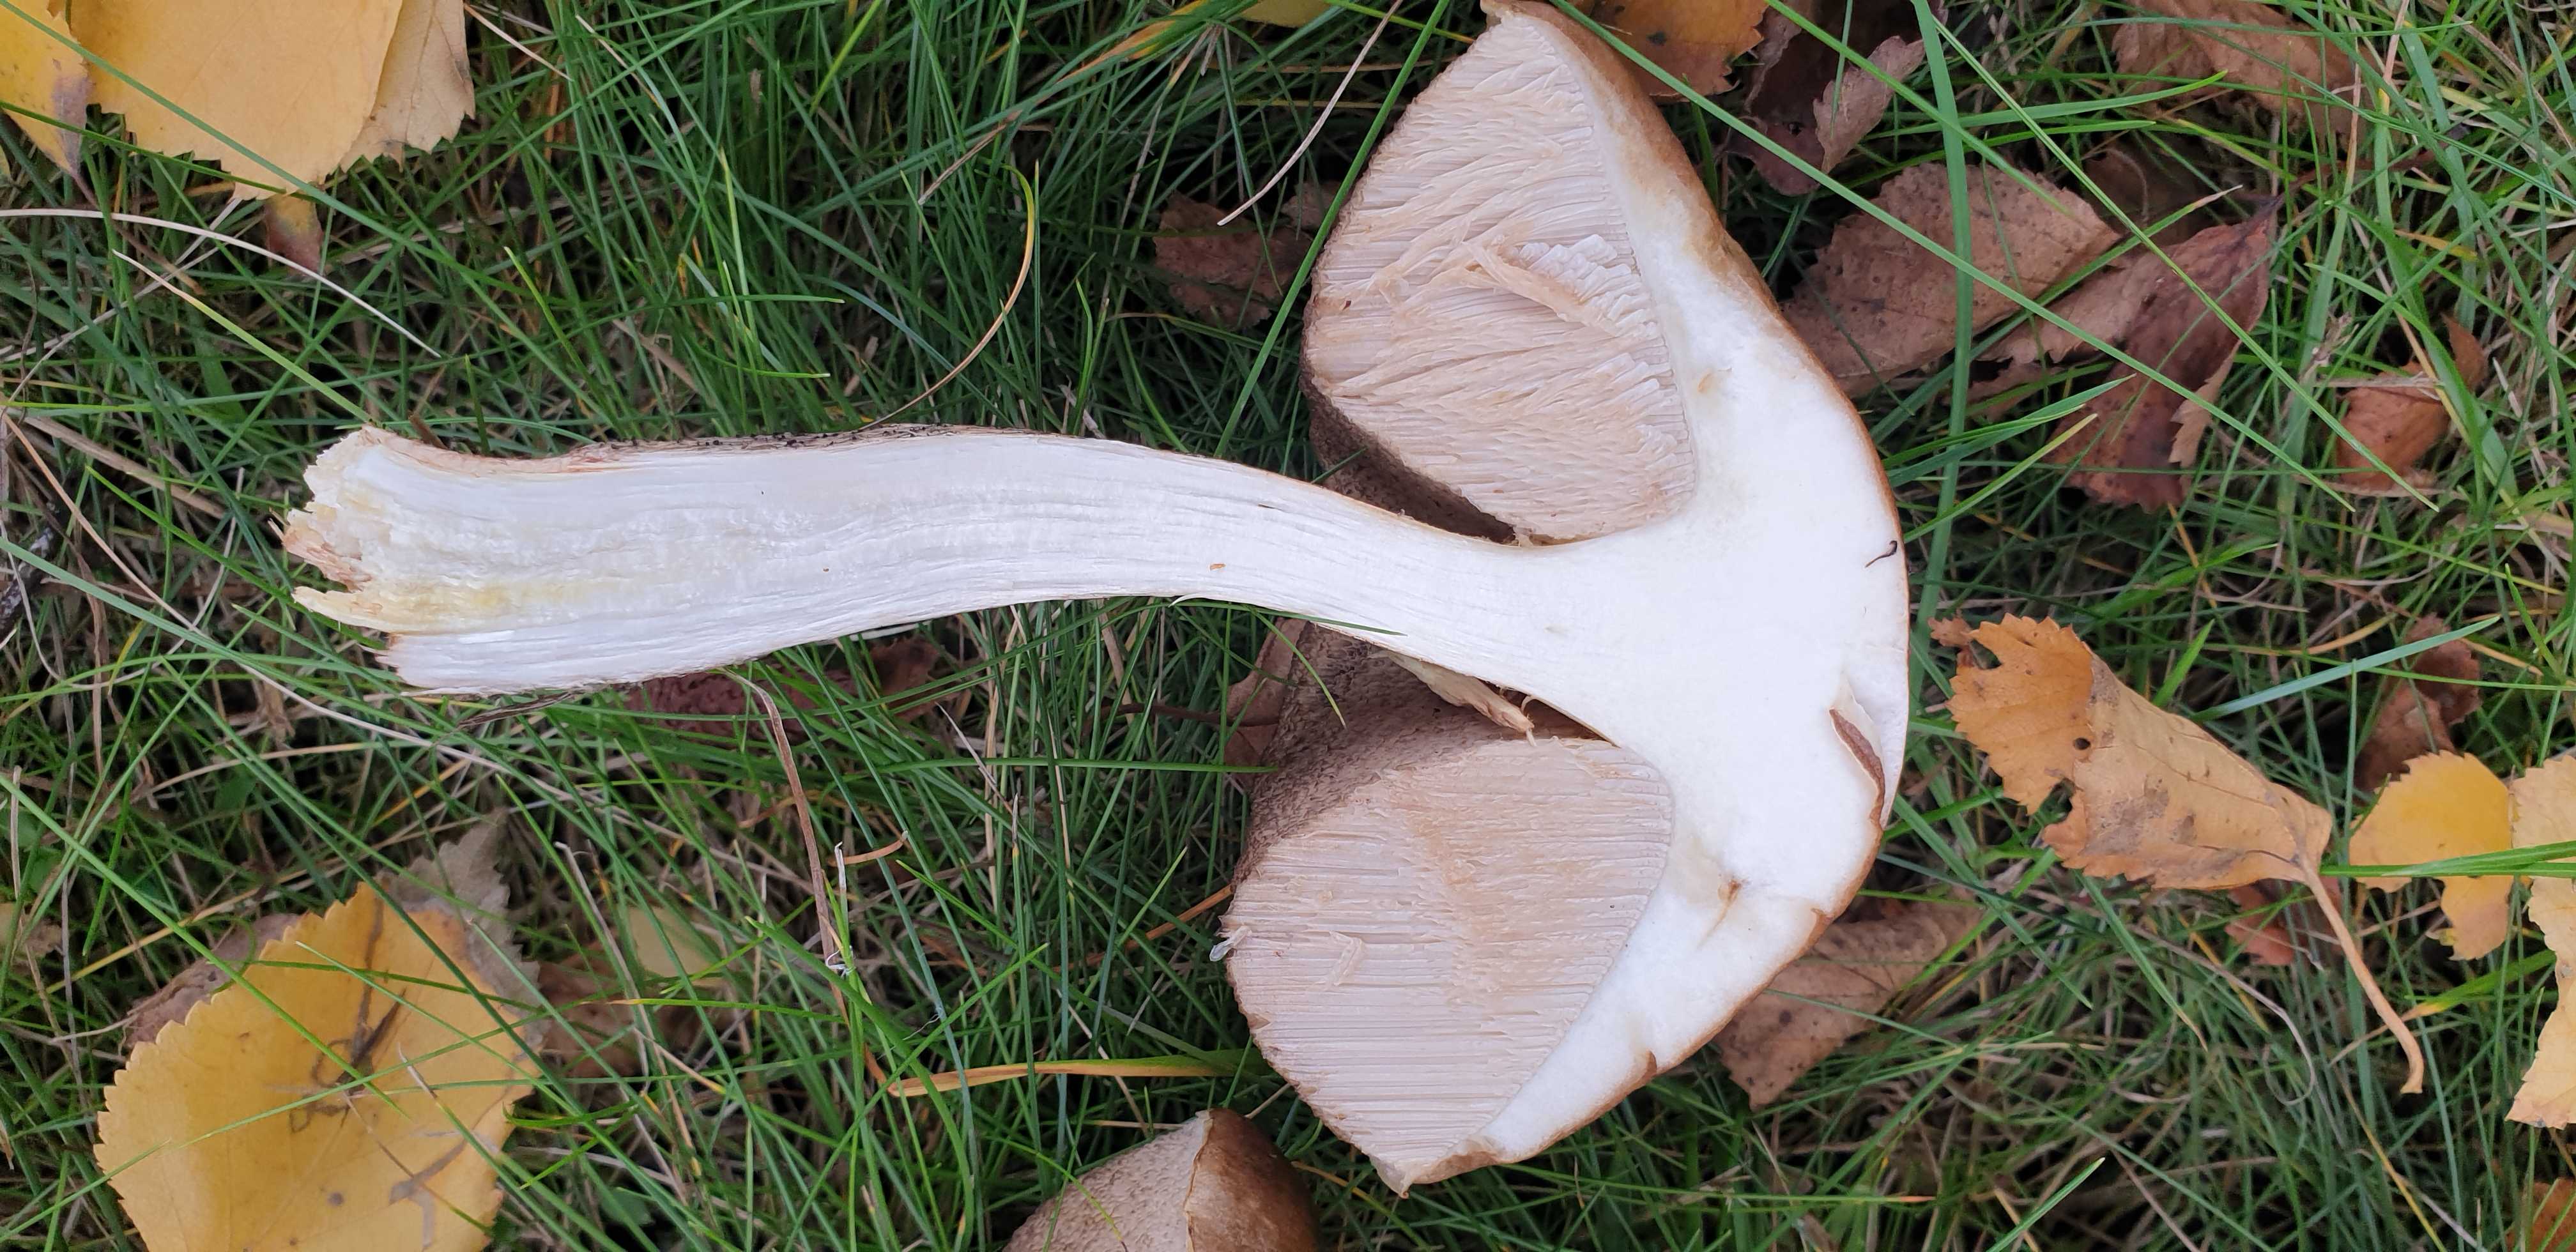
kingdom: Fungi
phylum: Basidiomycota
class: Agaricomycetes
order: Boletales
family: Boletaceae
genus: Leccinum
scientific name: Leccinum scabrum
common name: brun skælrørhat
